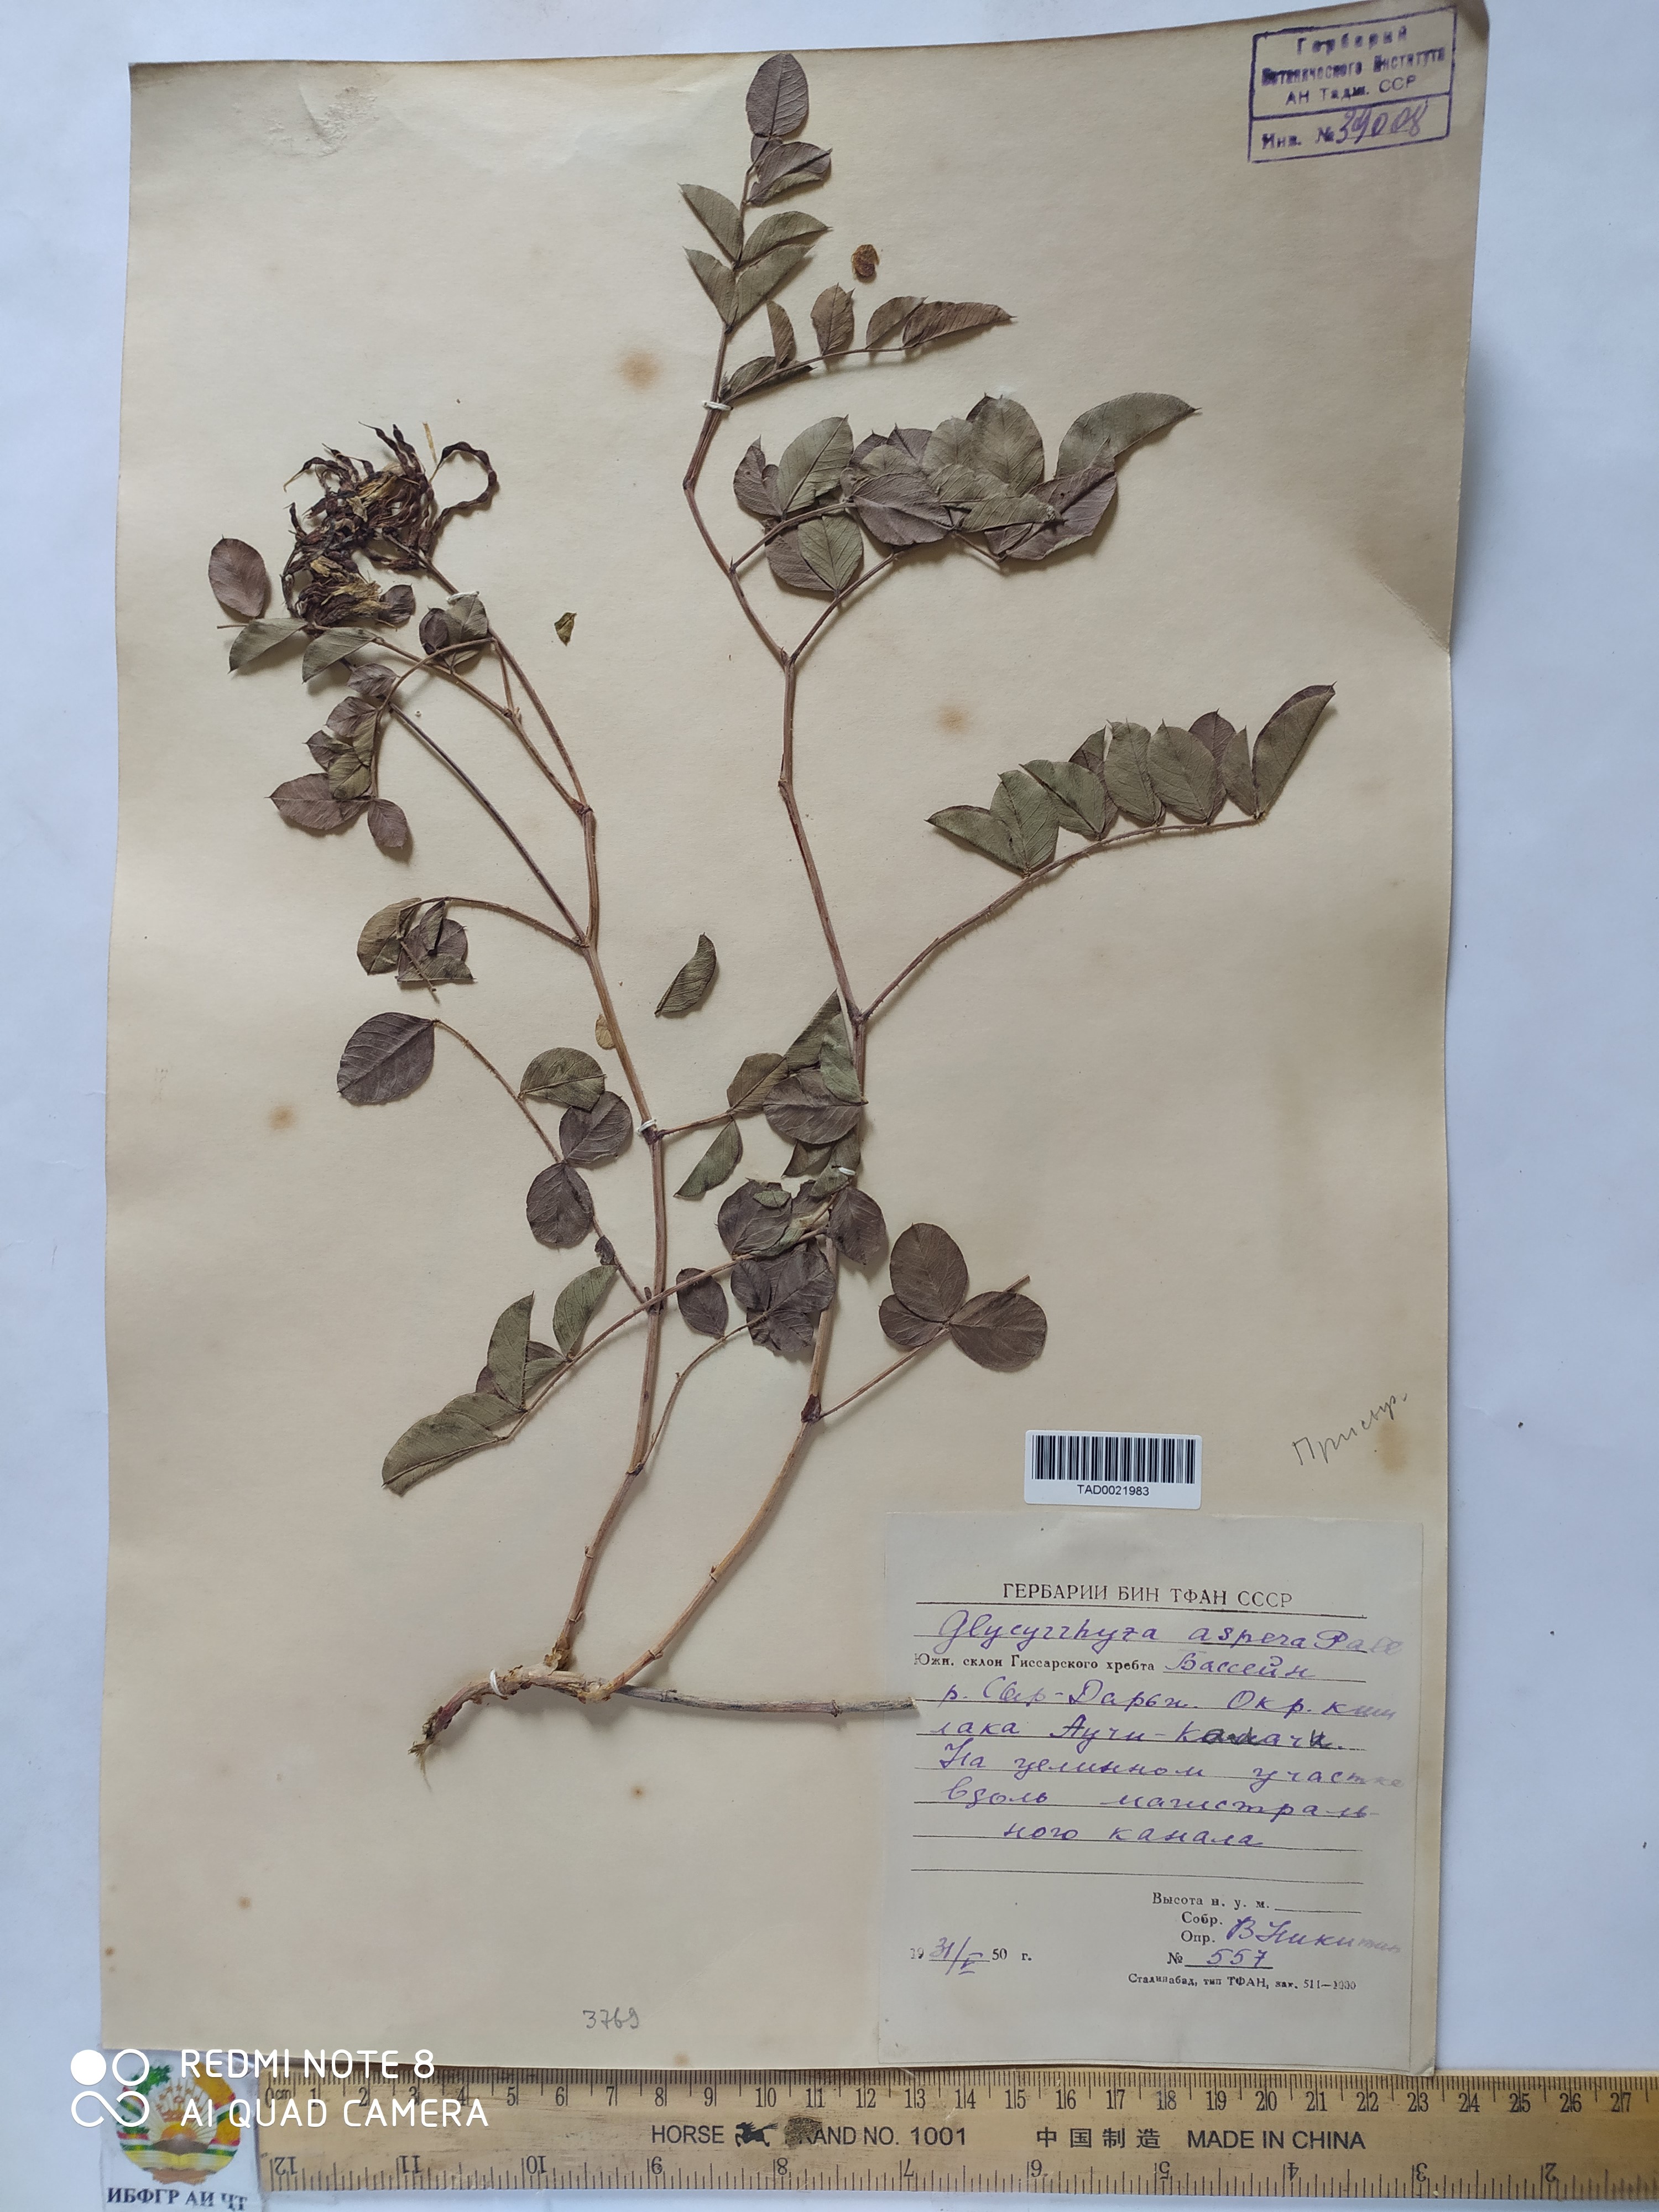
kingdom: Plantae
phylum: Tracheophyta
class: Magnoliopsida
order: Fabales
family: Fabaceae
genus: Glycyrrhiza
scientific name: Glycyrrhiza aspera
